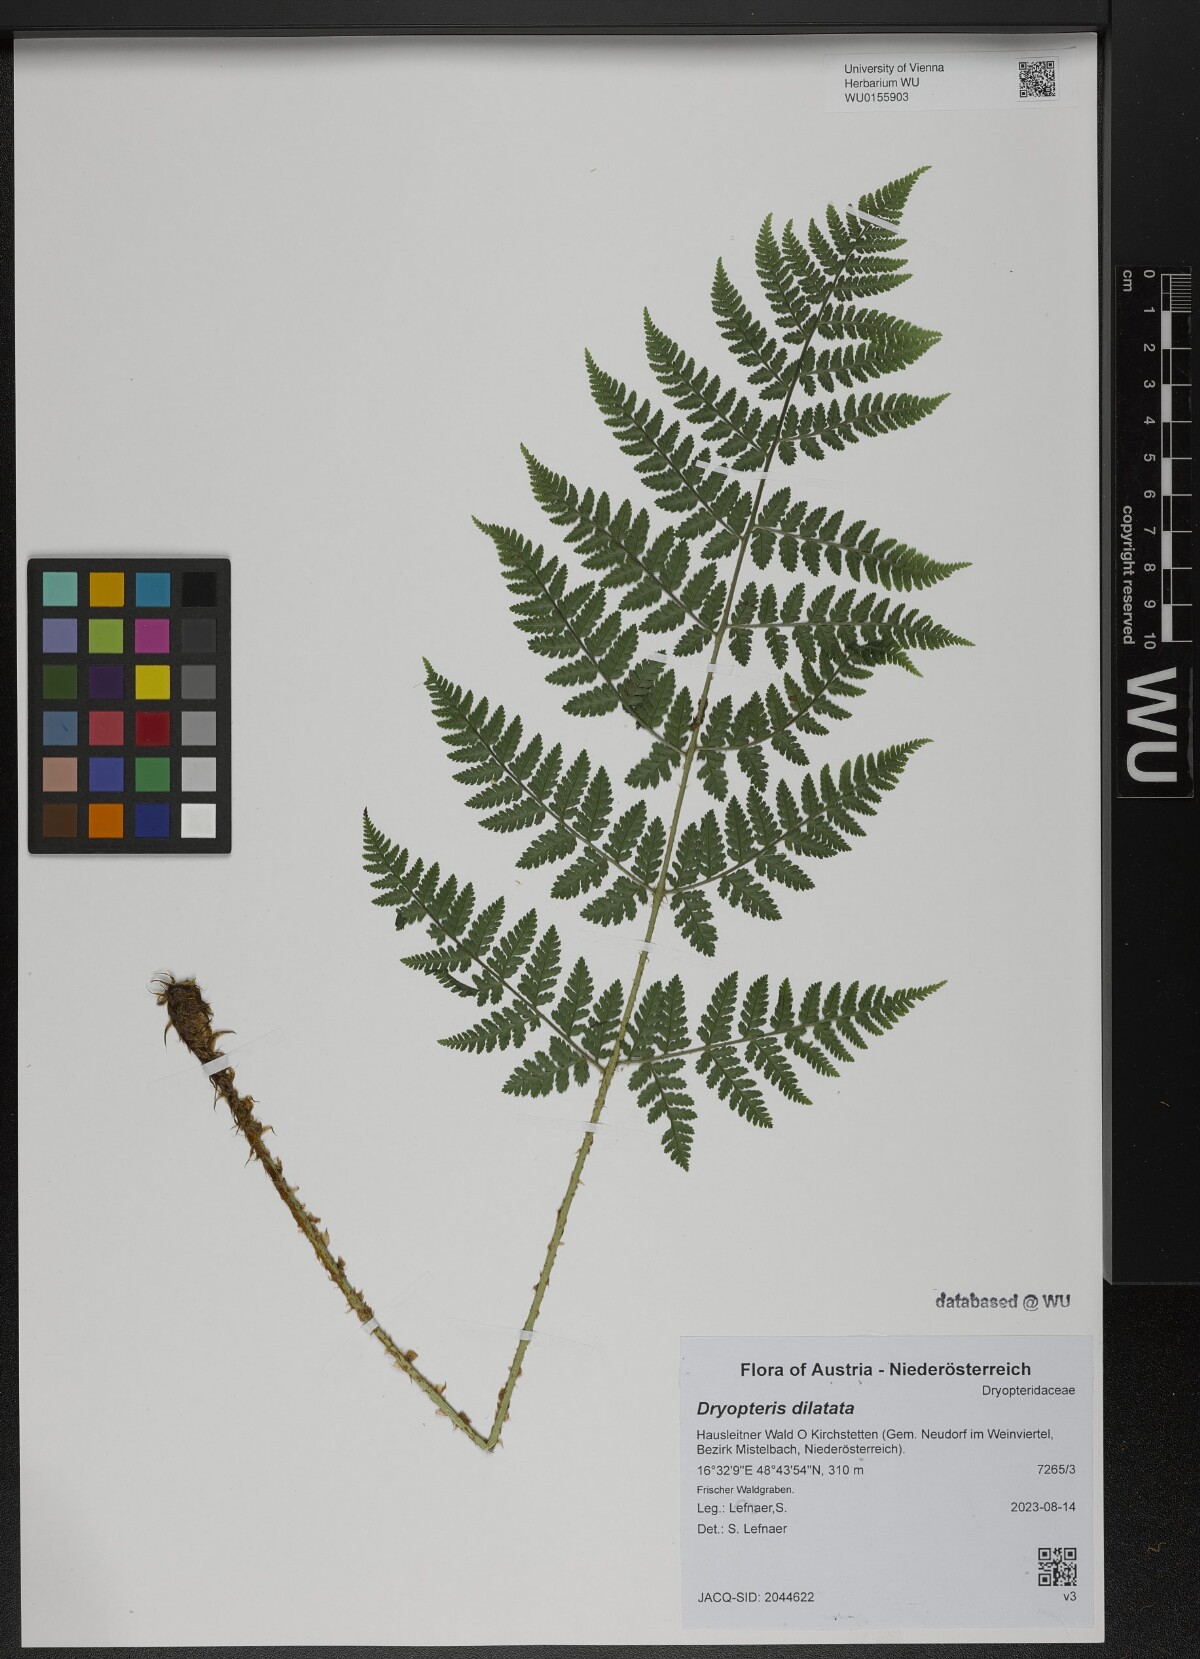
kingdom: Plantae
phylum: Tracheophyta
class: Polypodiopsida
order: Polypodiales
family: Dryopteridaceae
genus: Dryopteris
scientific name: Dryopteris dilatata
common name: Broad buckler-fern
